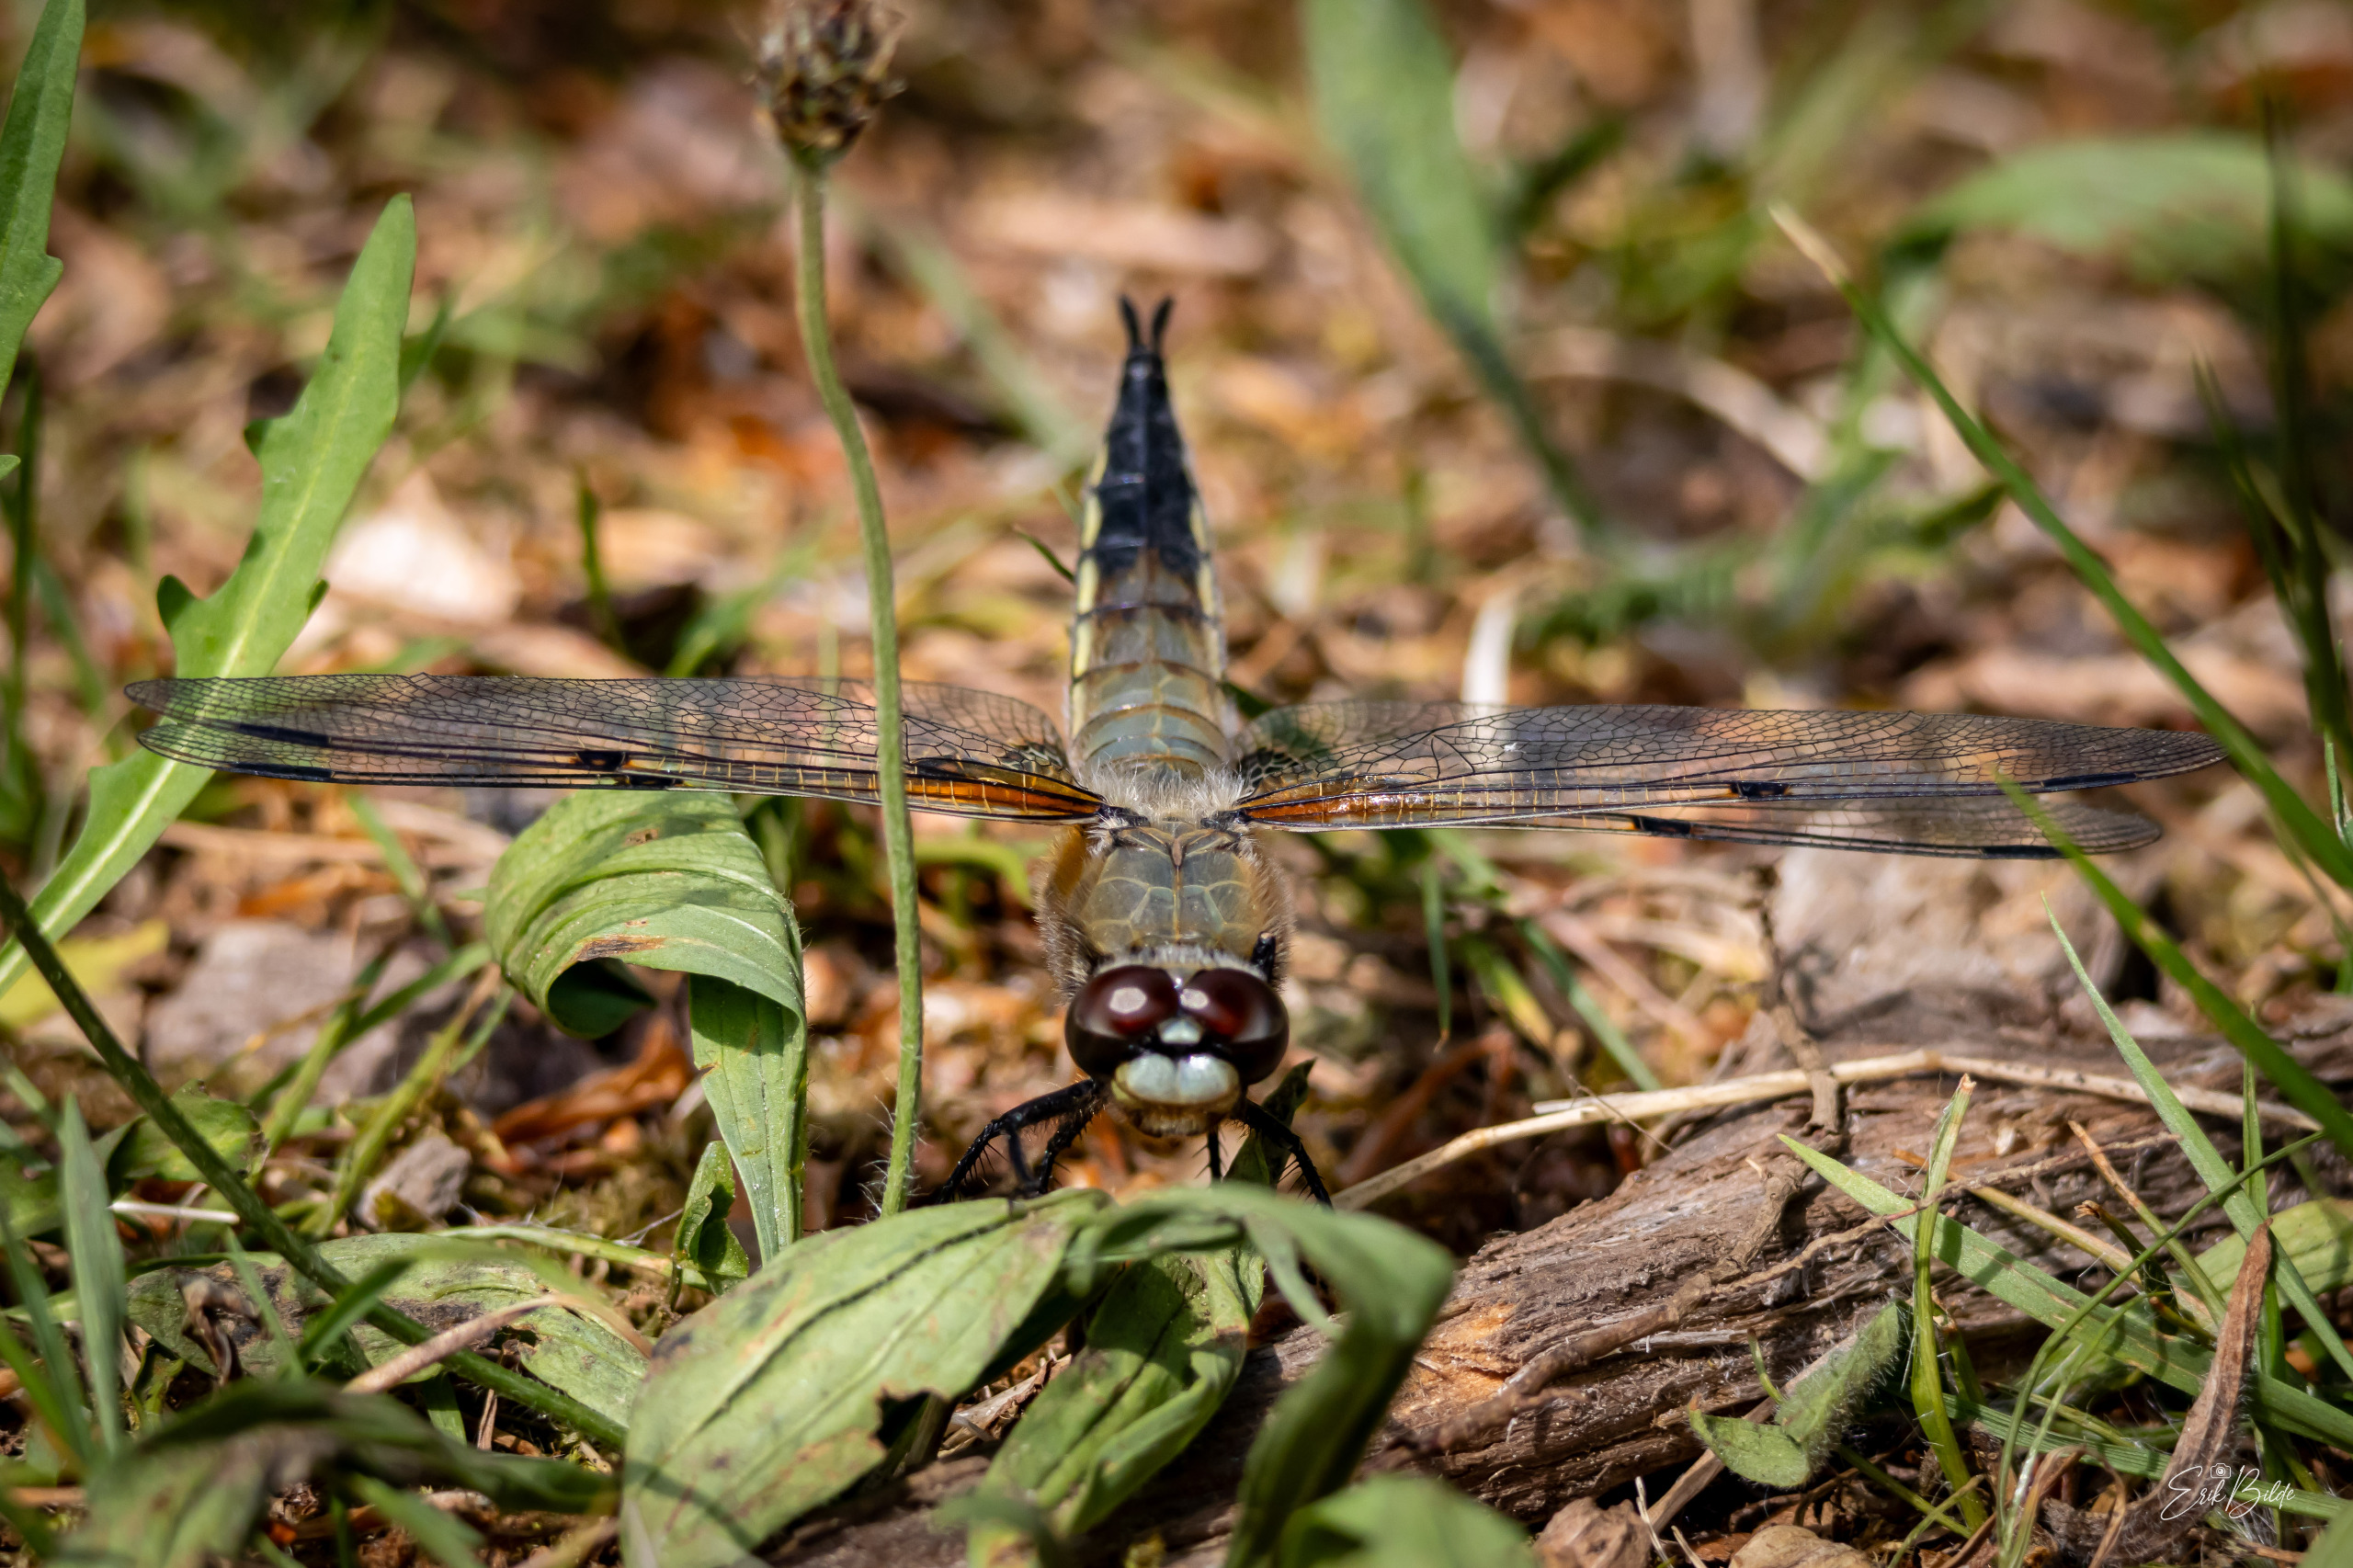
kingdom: Animalia
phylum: Arthropoda
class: Insecta
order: Odonata
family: Libellulidae
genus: Libellula
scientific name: Libellula quadrimaculata
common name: Fireplettet libel
